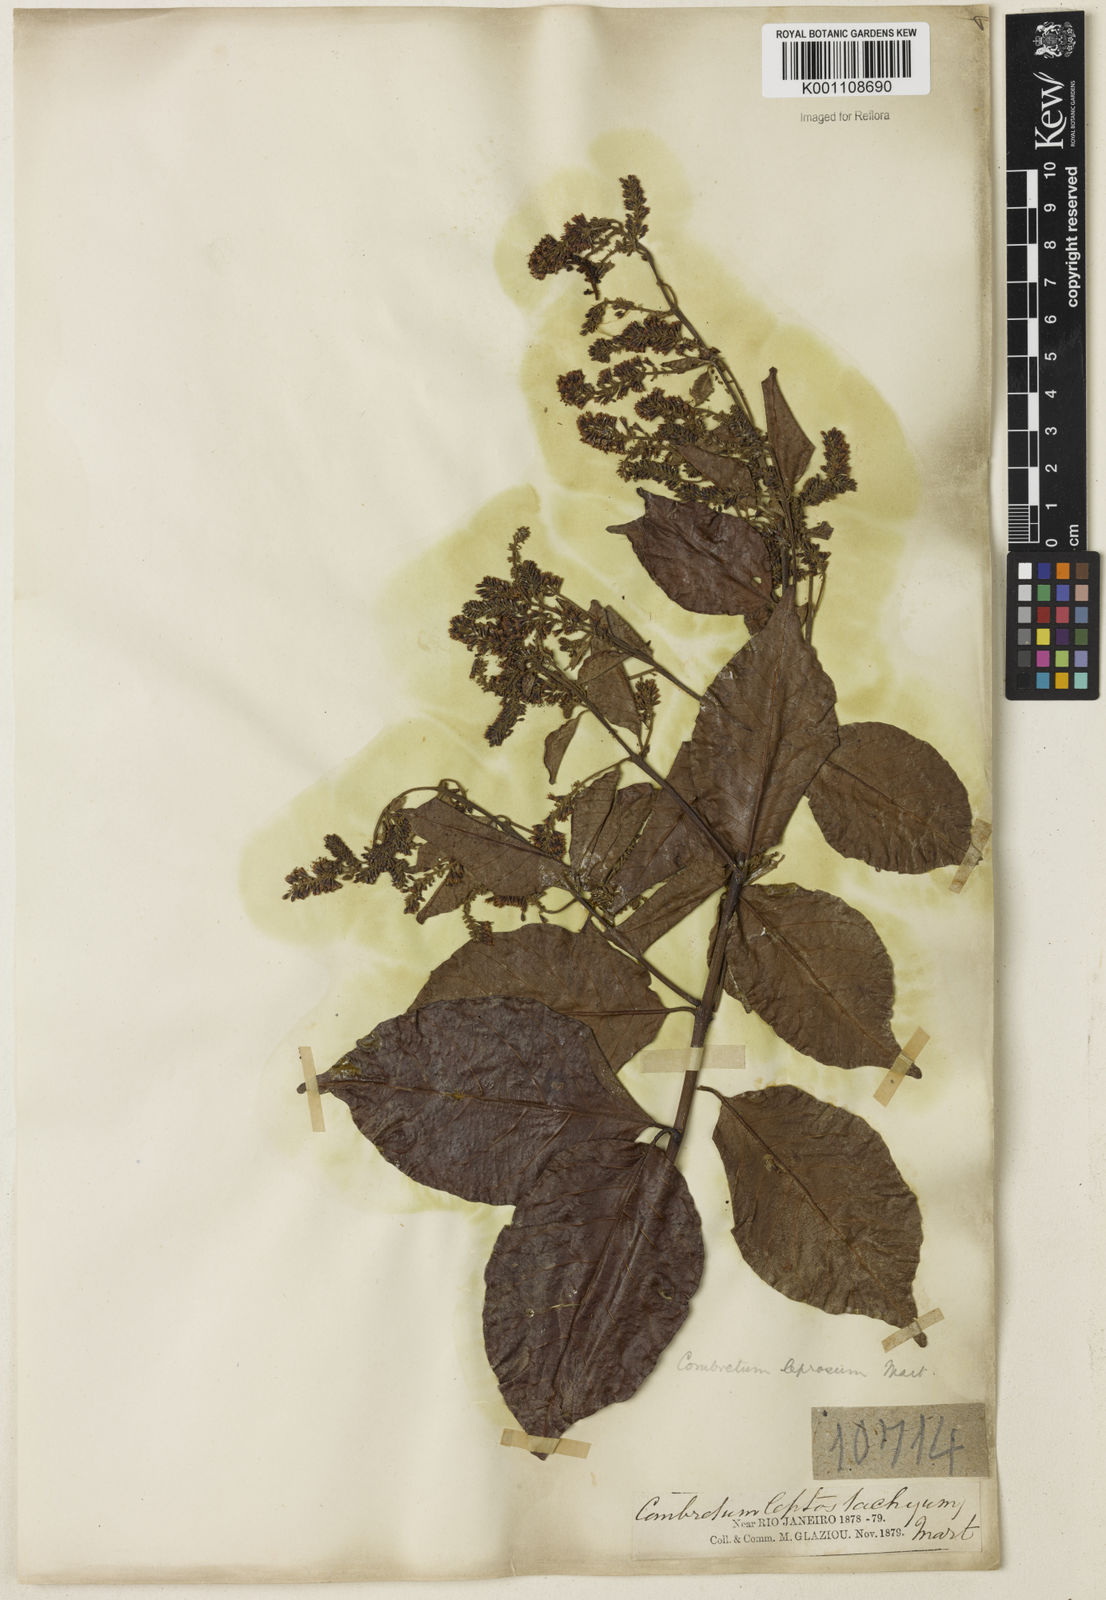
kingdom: Plantae
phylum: Tracheophyta
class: Magnoliopsida
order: Myrtales
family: Combretaceae
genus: Combretum
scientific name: Combretum leprosum
